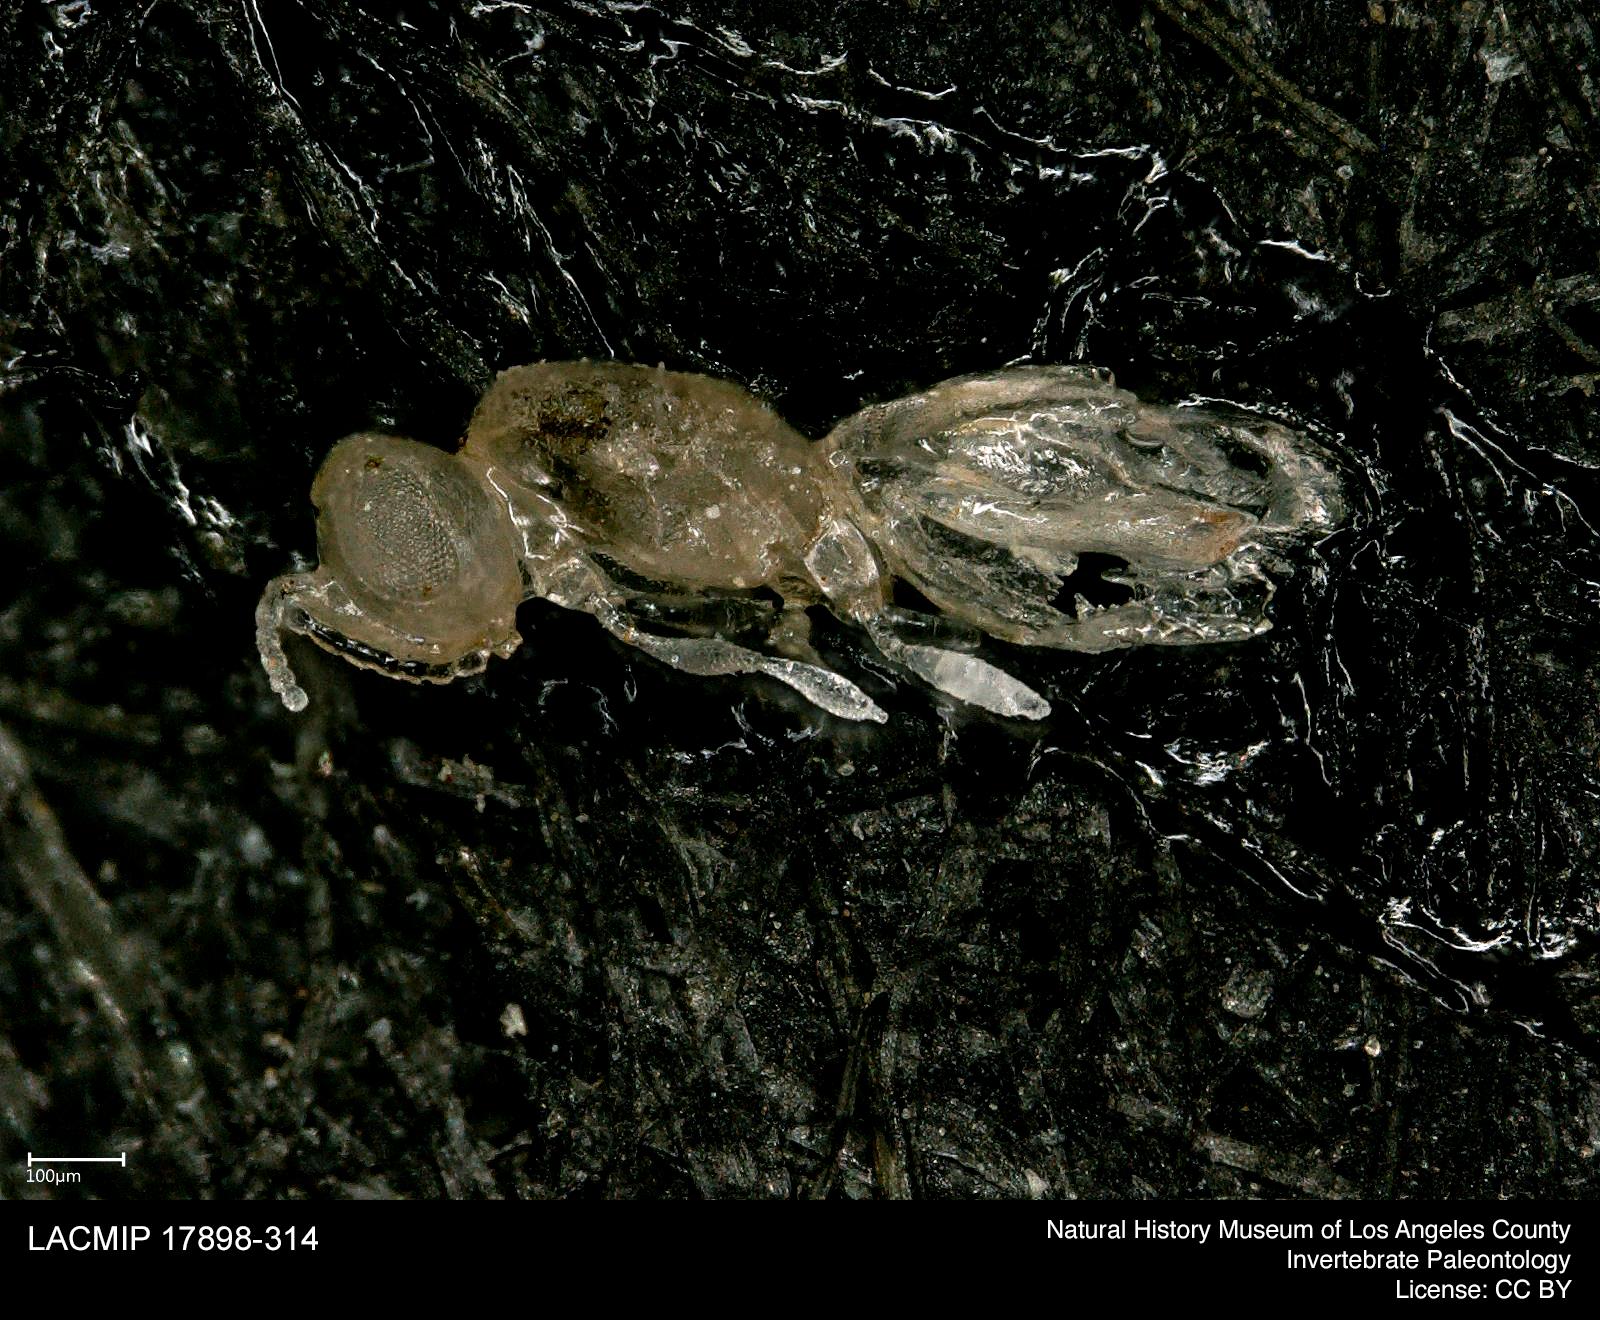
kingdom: Animalia
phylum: Arthropoda
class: Insecta
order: Hymenoptera
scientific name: Hymenoptera
